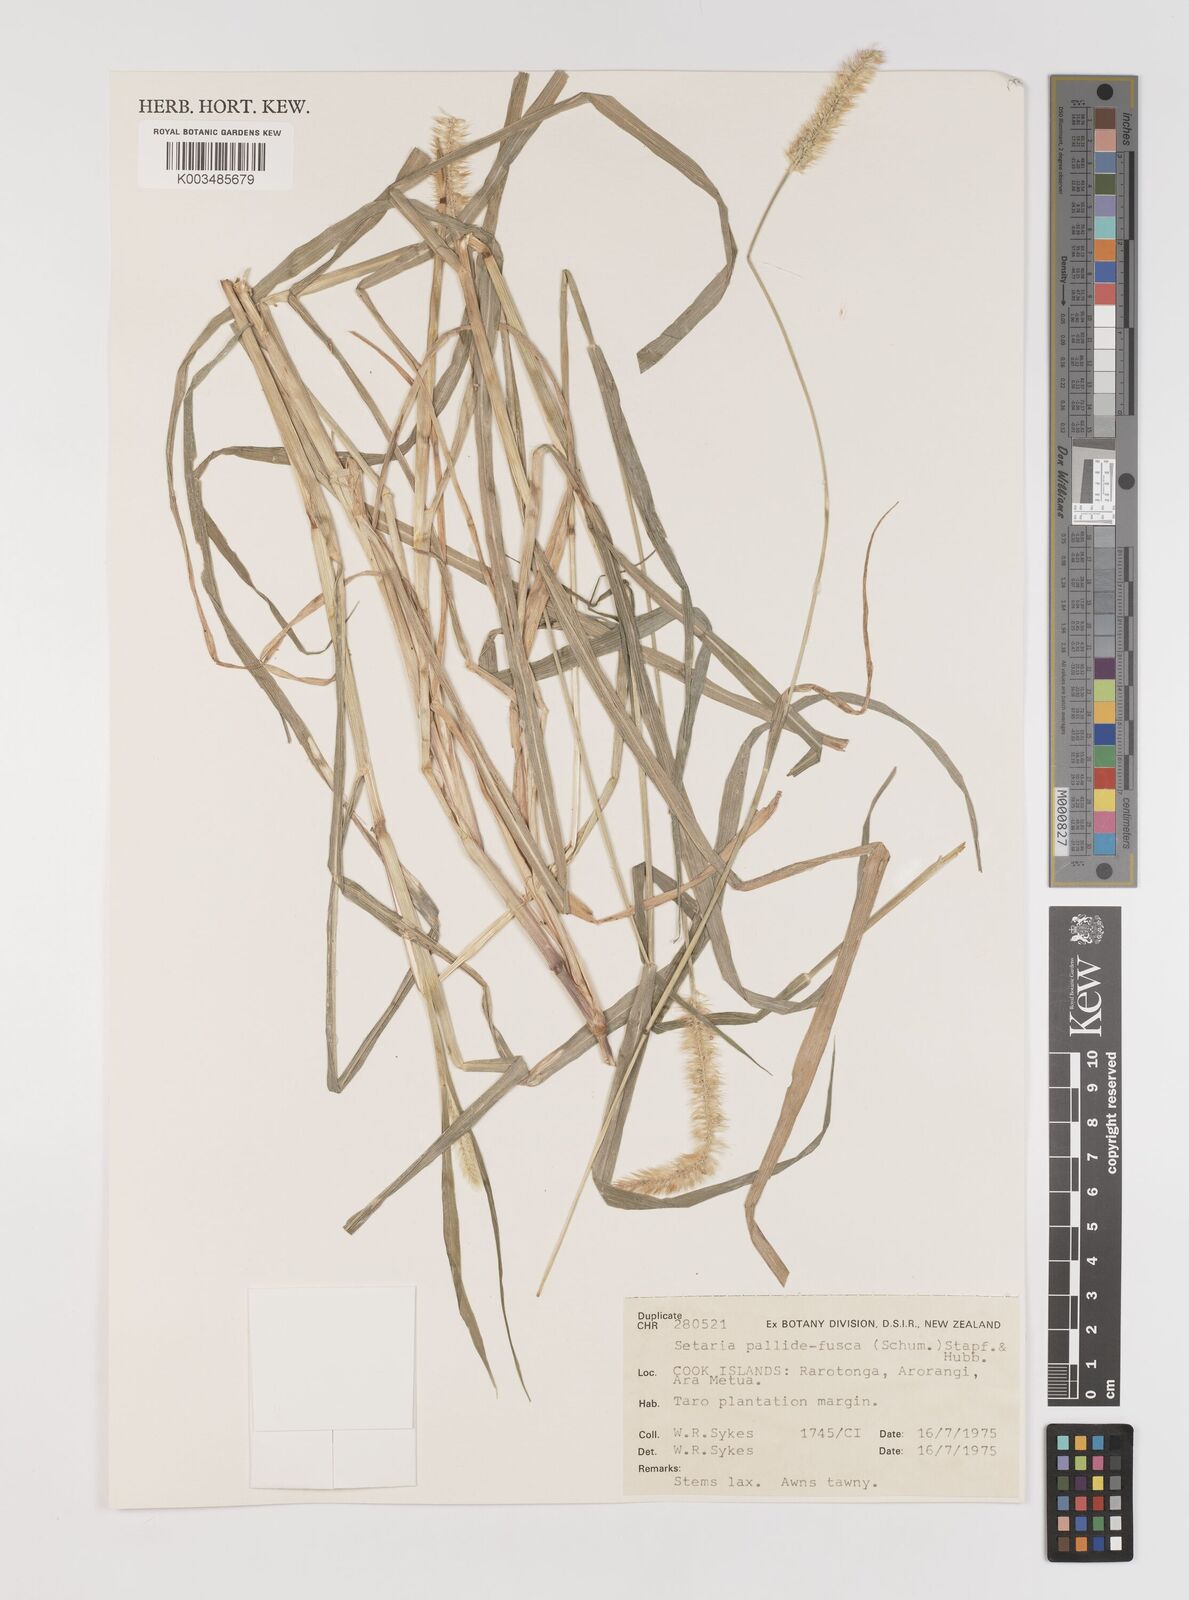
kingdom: Plantae
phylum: Tracheophyta
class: Liliopsida
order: Poales
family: Poaceae
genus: Setaria
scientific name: Setaria pumila
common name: Yellow bristle-grass
